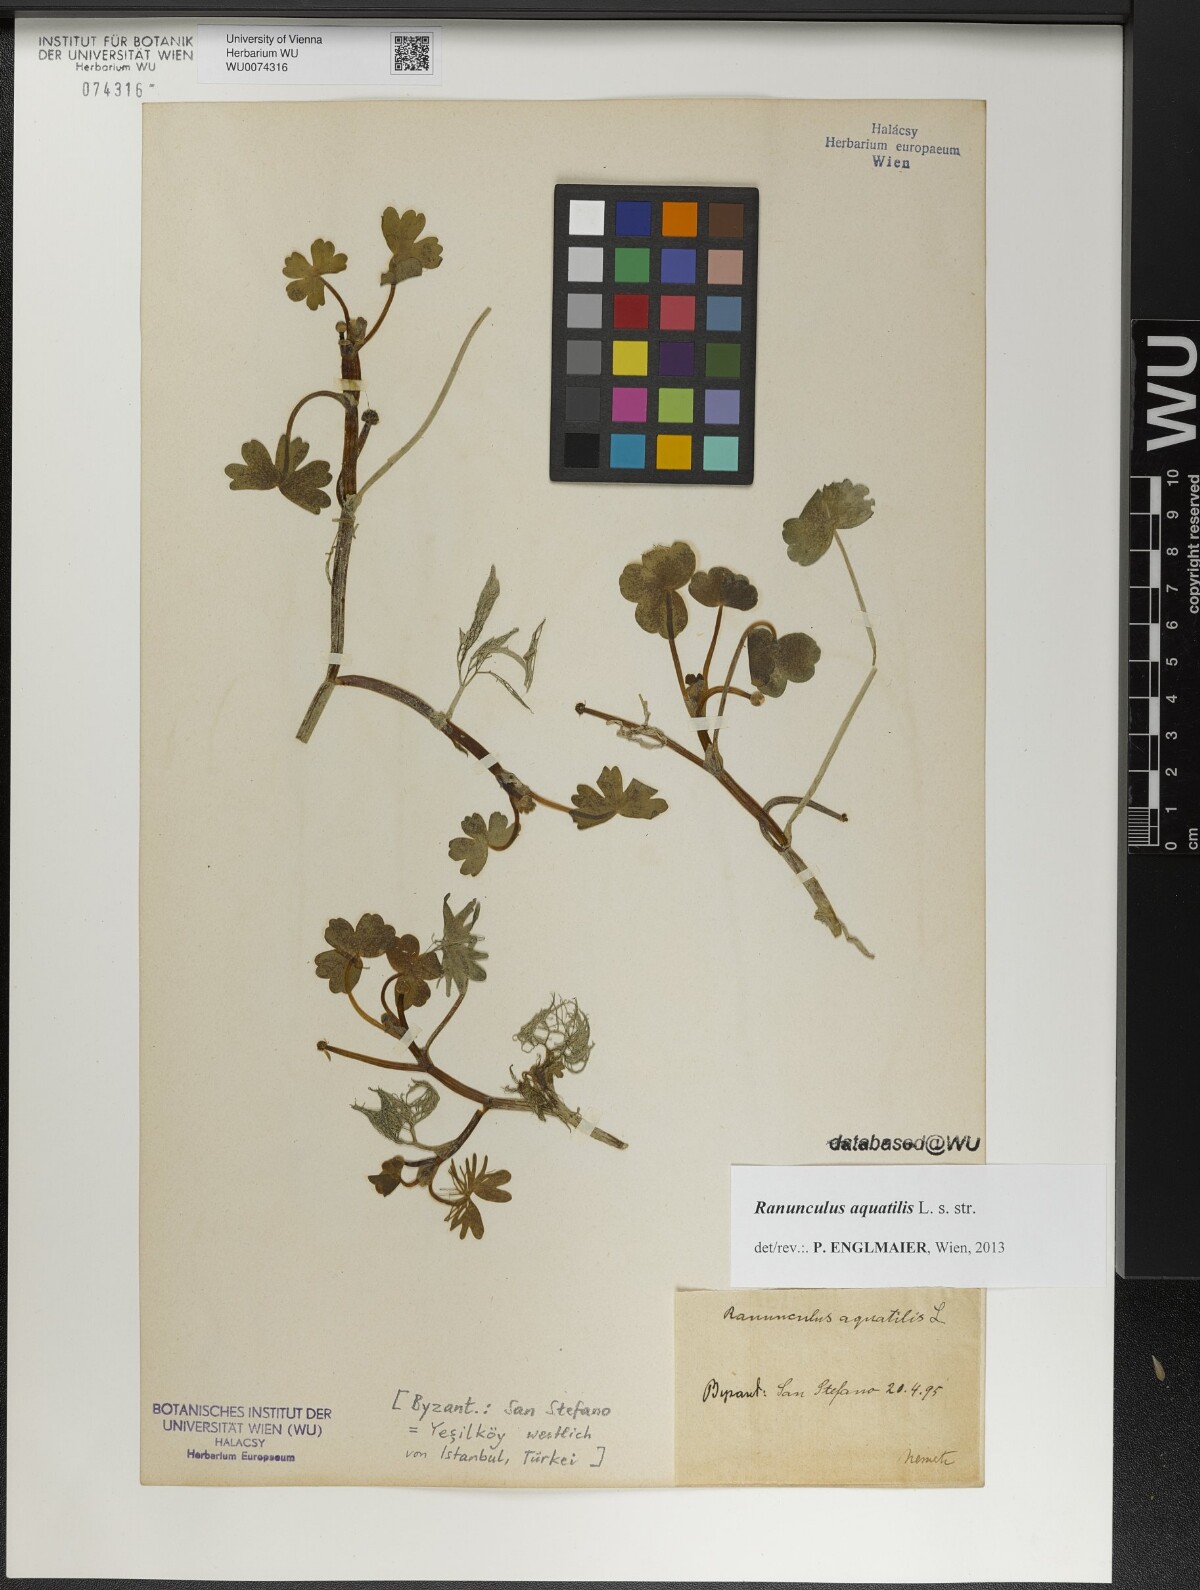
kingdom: Plantae
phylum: Tracheophyta
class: Magnoliopsida
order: Ranunculales
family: Ranunculaceae
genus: Ranunculus
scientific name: Ranunculus aquatilis
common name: Common water-crowfoot
